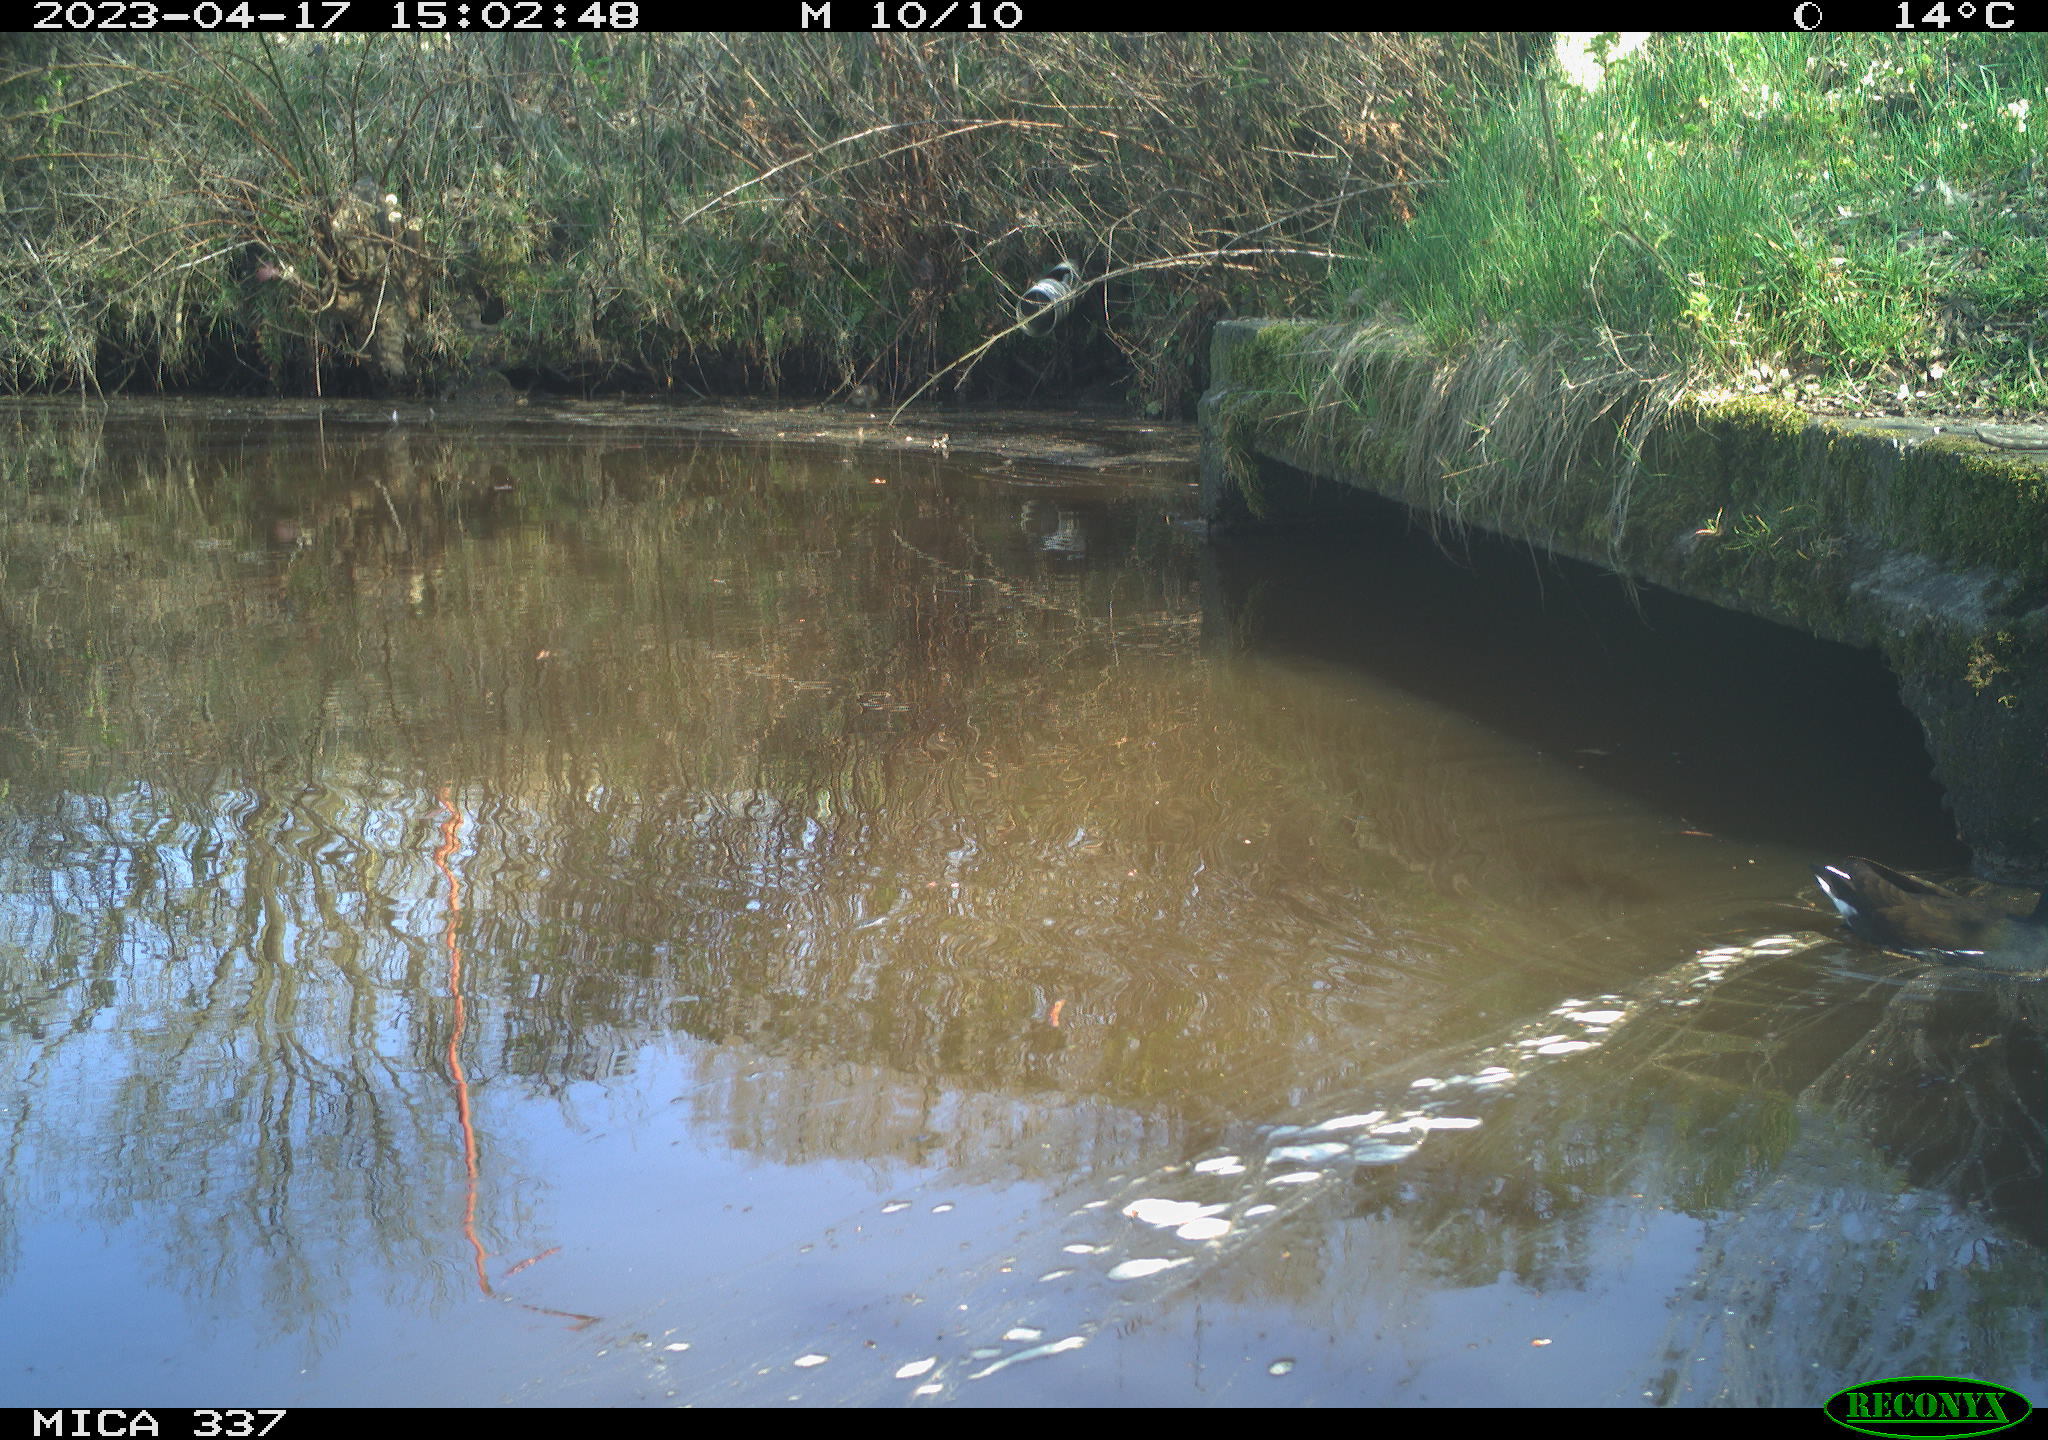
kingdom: Animalia
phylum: Chordata
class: Aves
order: Gruiformes
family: Rallidae
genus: Gallinula
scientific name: Gallinula chloropus
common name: Common moorhen
